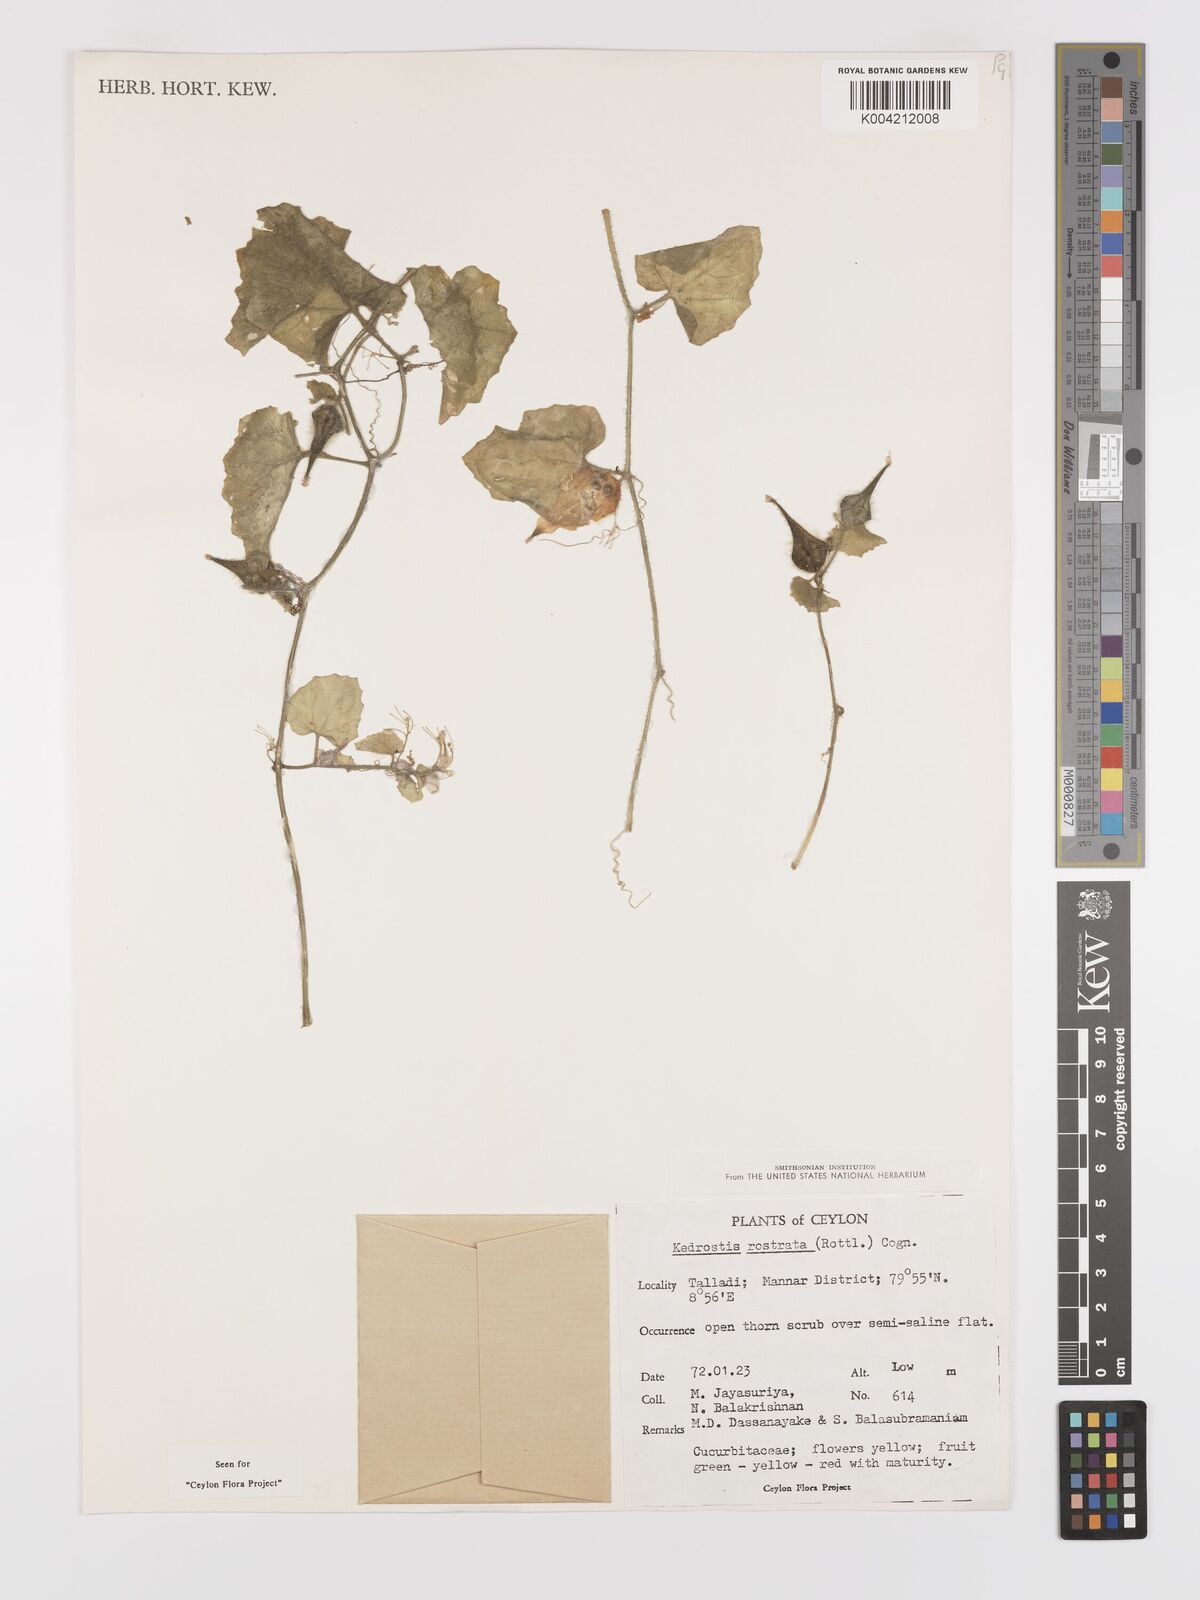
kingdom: Plantae
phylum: Tracheophyta
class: Magnoliopsida
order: Cucurbitales
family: Cucurbitaceae
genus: Kedrostis
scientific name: Kedrostis foetidissima
